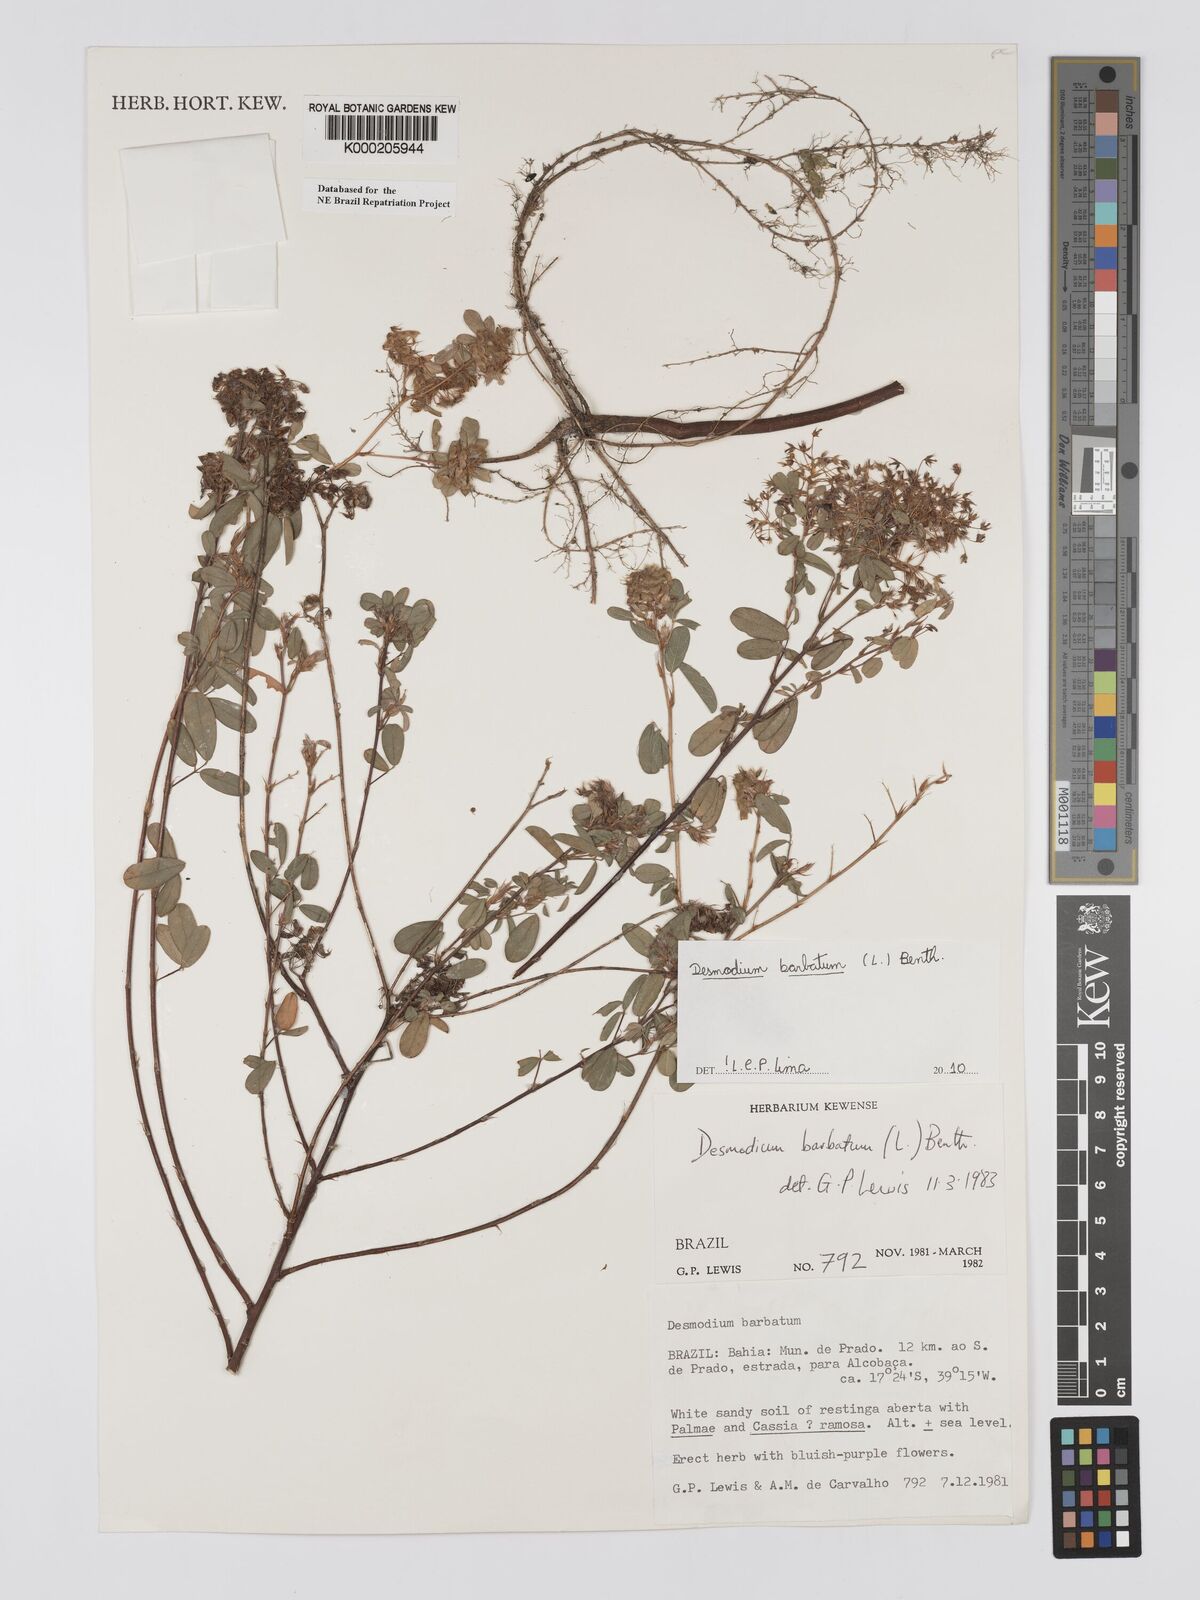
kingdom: Plantae
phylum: Tracheophyta
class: Magnoliopsida
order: Fabales
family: Fabaceae
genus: Grona
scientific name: Grona barbata
